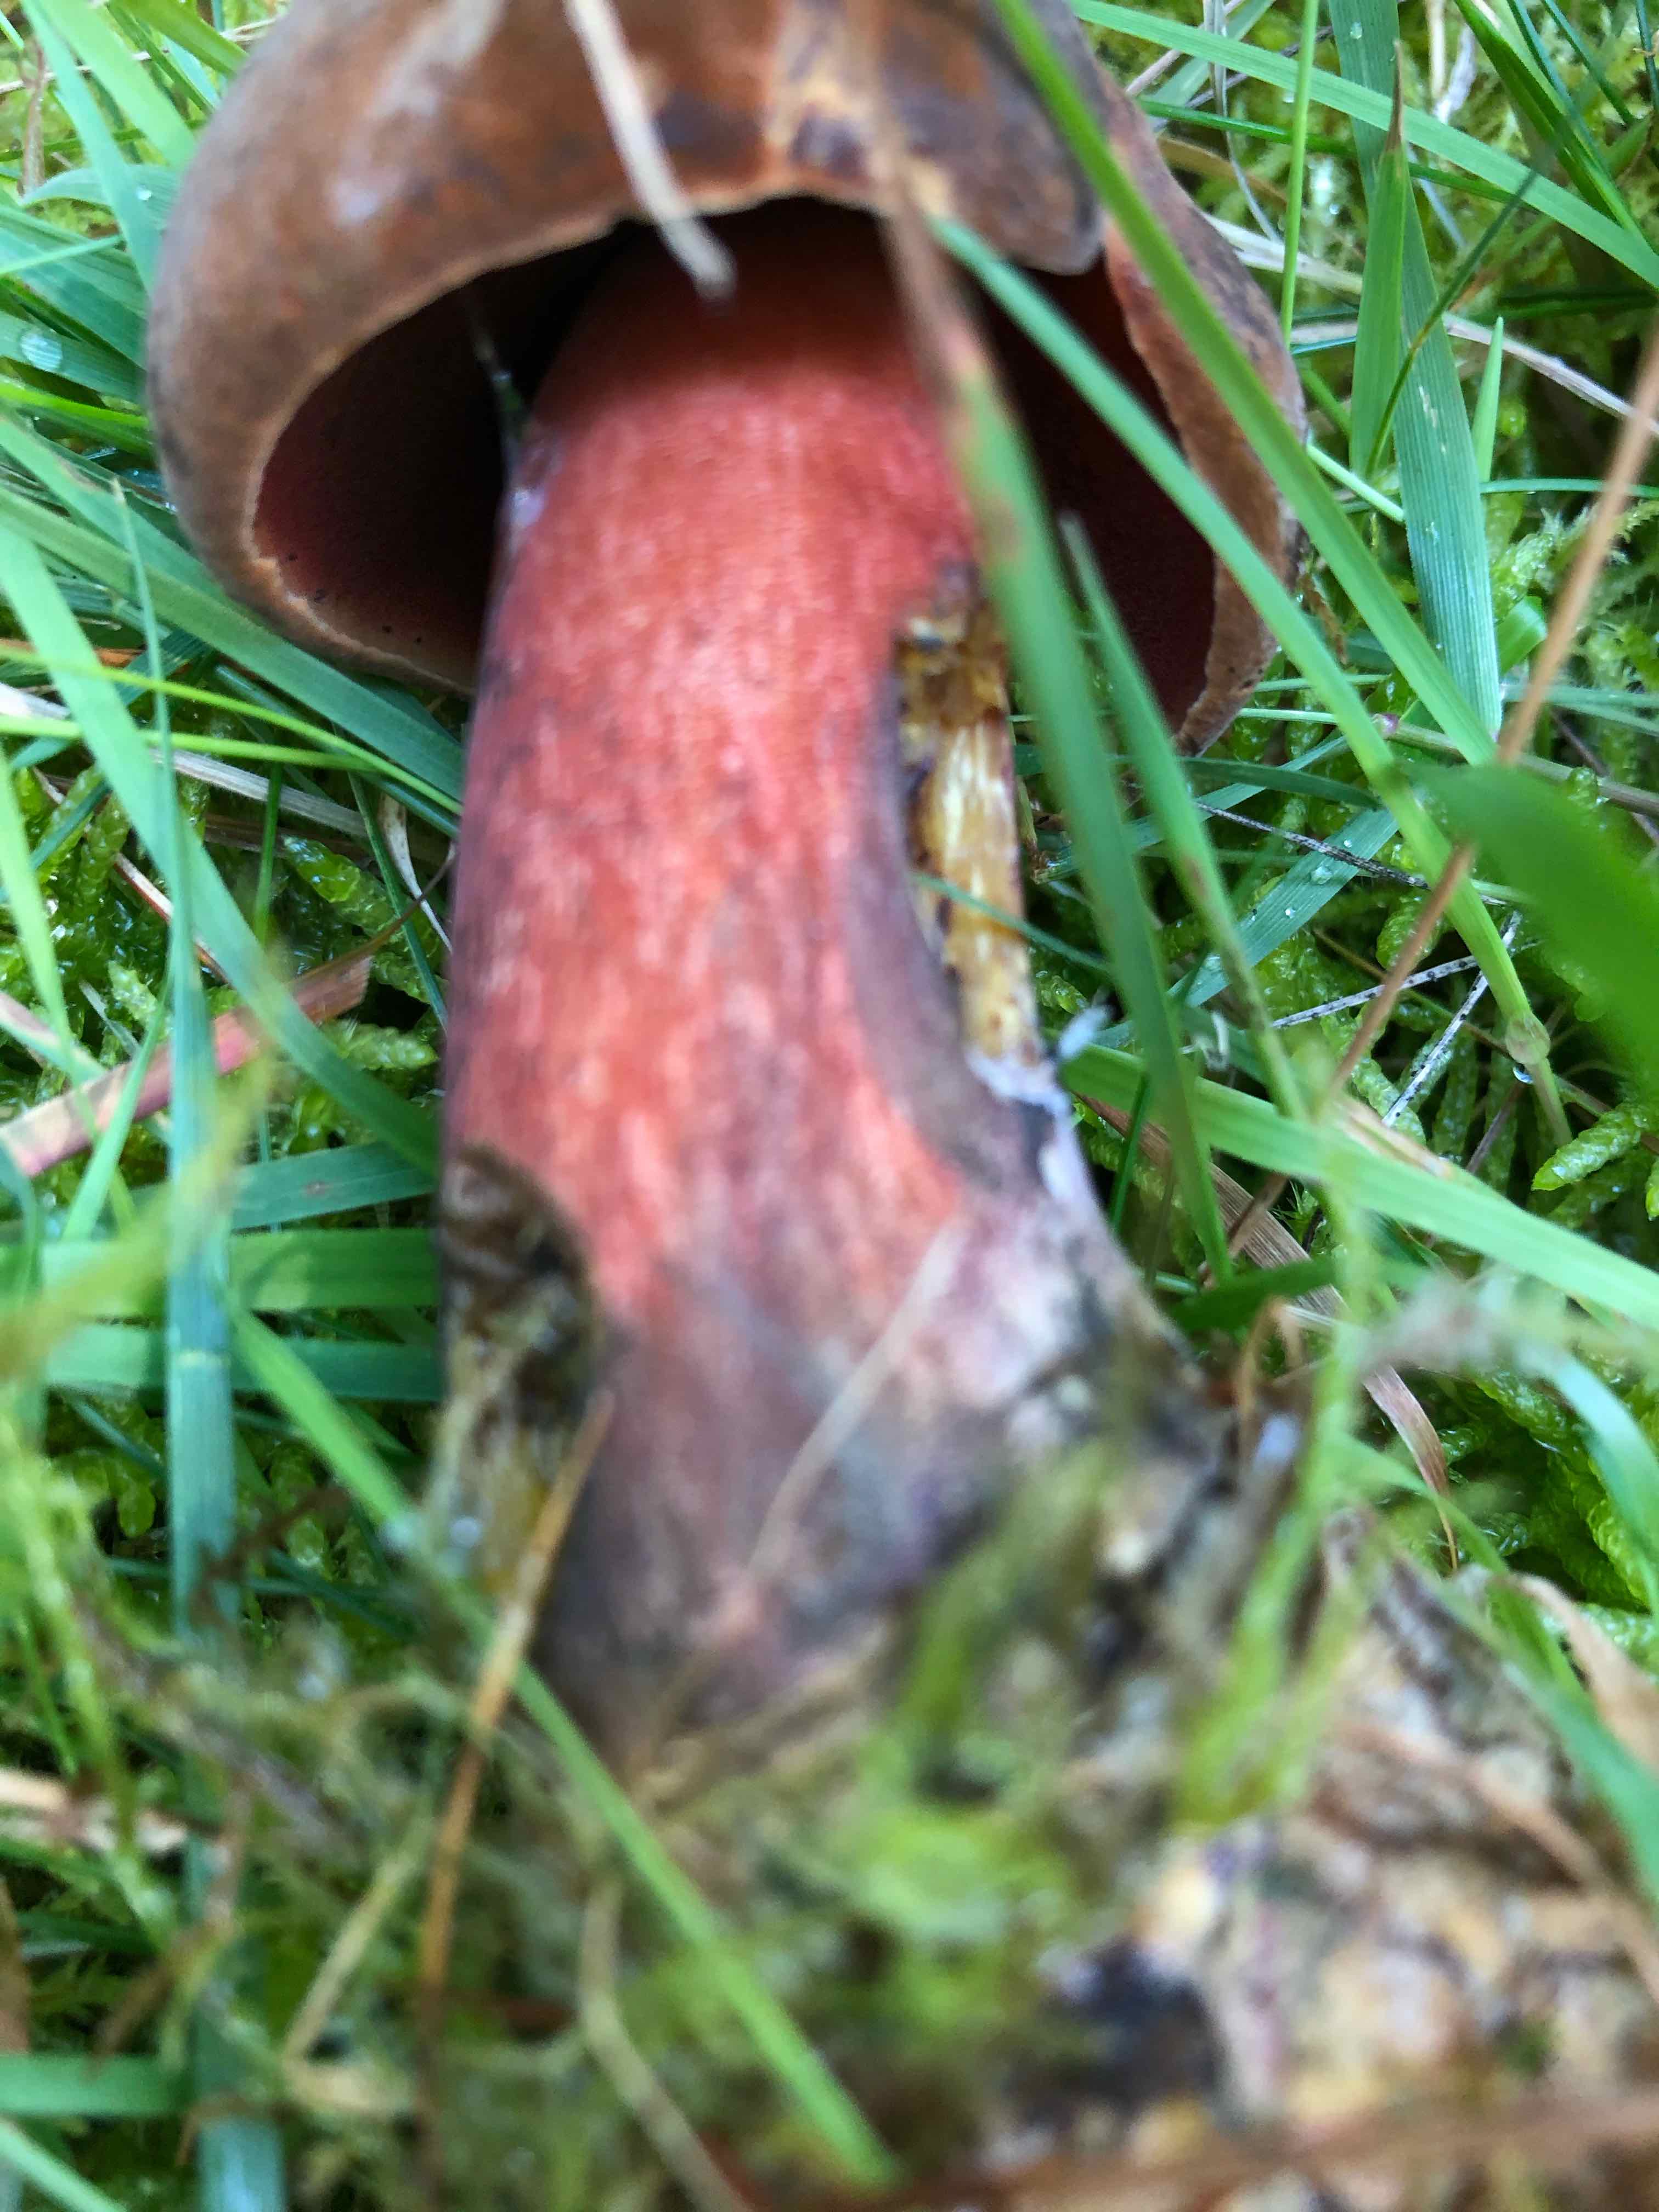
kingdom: Fungi
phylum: Basidiomycota
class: Agaricomycetes
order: Boletales
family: Boletaceae
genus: Neoboletus
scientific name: Neoboletus erythropus
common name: punktstokket indigorørhat
